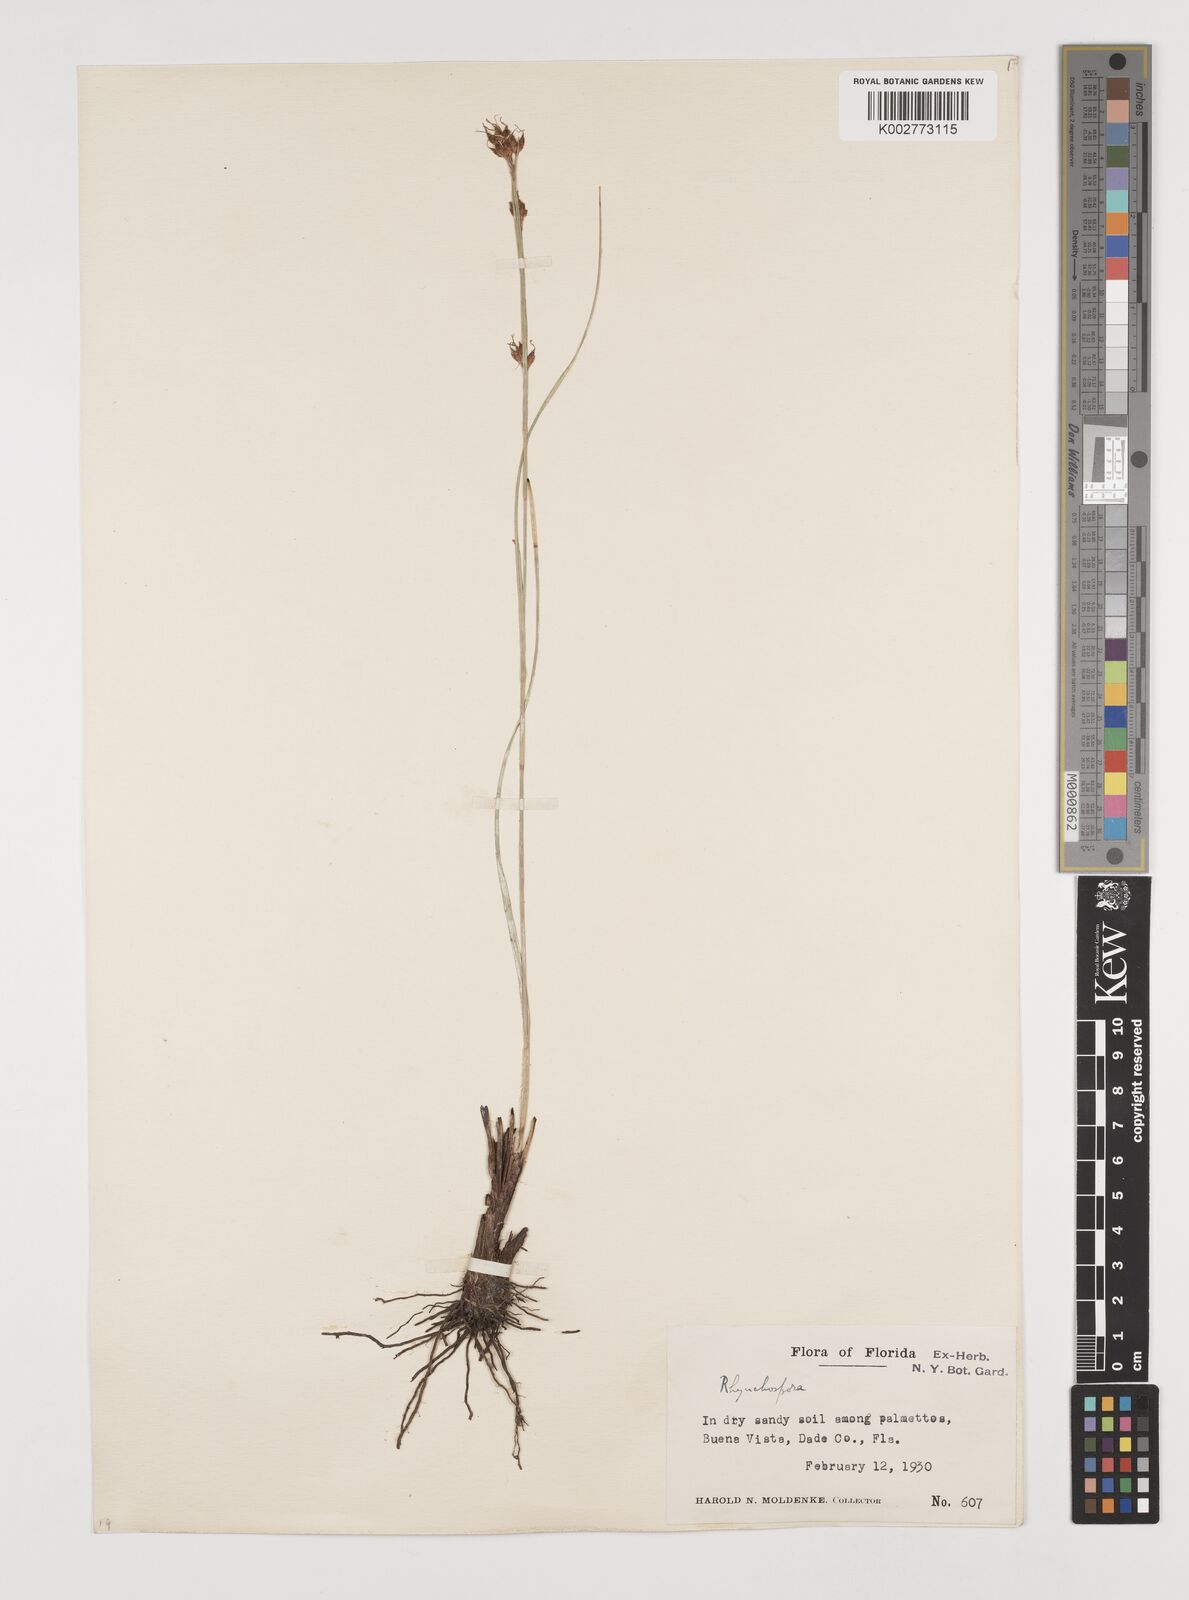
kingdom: Plantae
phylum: Tracheophyta
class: Liliopsida
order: Poales
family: Cyperaceae
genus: Rhynchospora
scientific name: Rhynchospora
